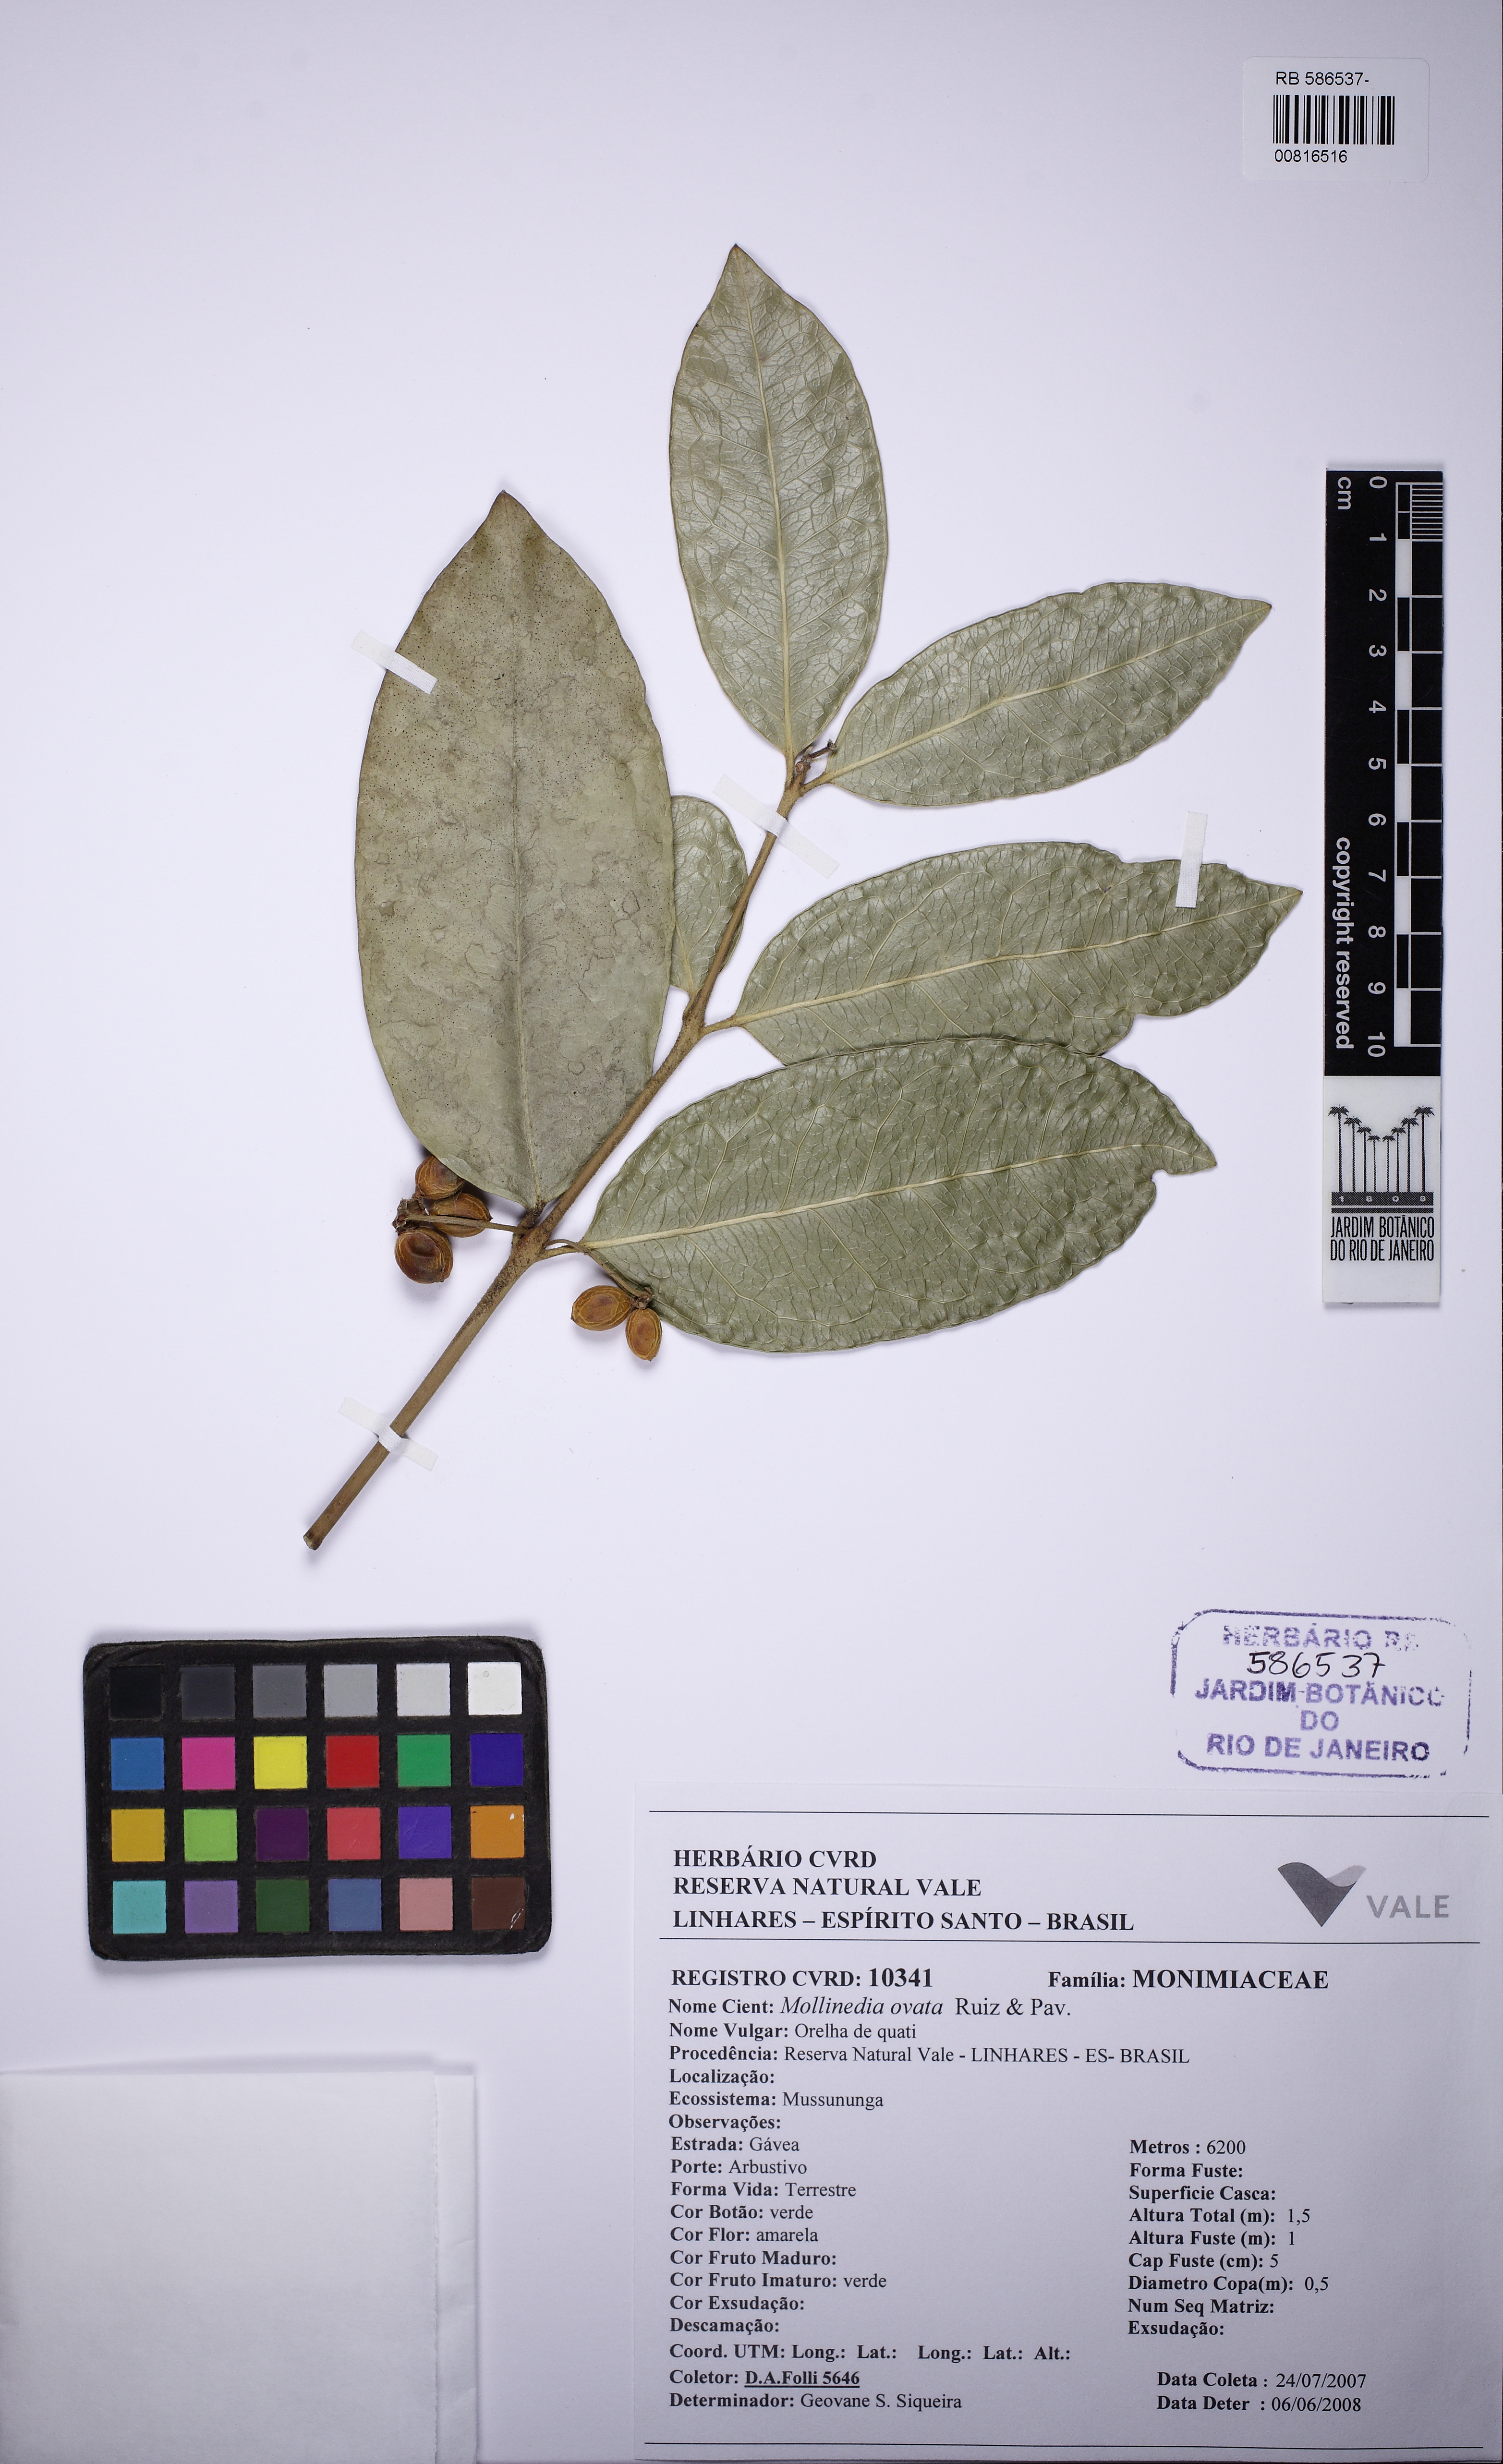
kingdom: Plantae
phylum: Tracheophyta
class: Magnoliopsida
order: Laurales
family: Monimiaceae
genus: Mollinedia
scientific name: Mollinedia glabra
